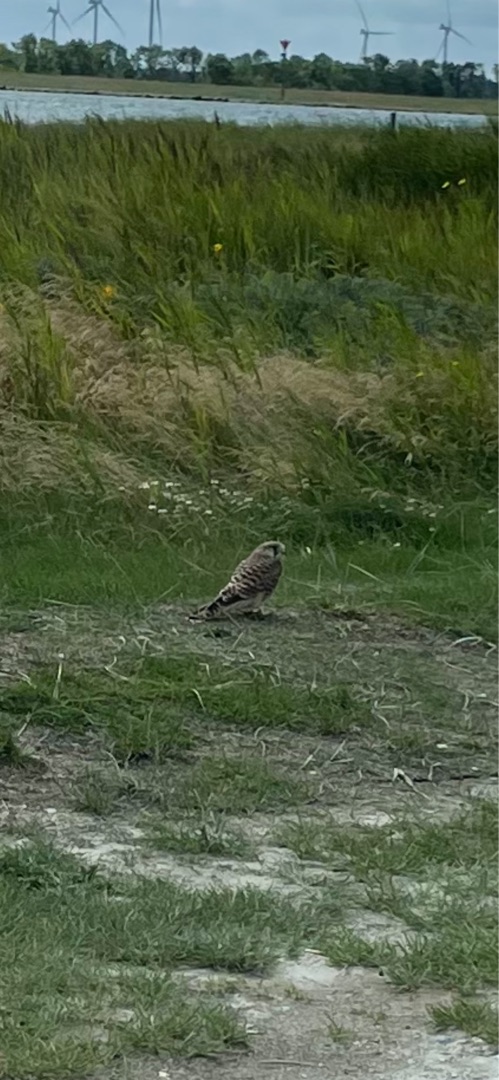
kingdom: Animalia
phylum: Chordata
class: Aves
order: Falconiformes
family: Falconidae
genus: Falco
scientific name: Falco tinnunculus
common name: Tårnfalk
